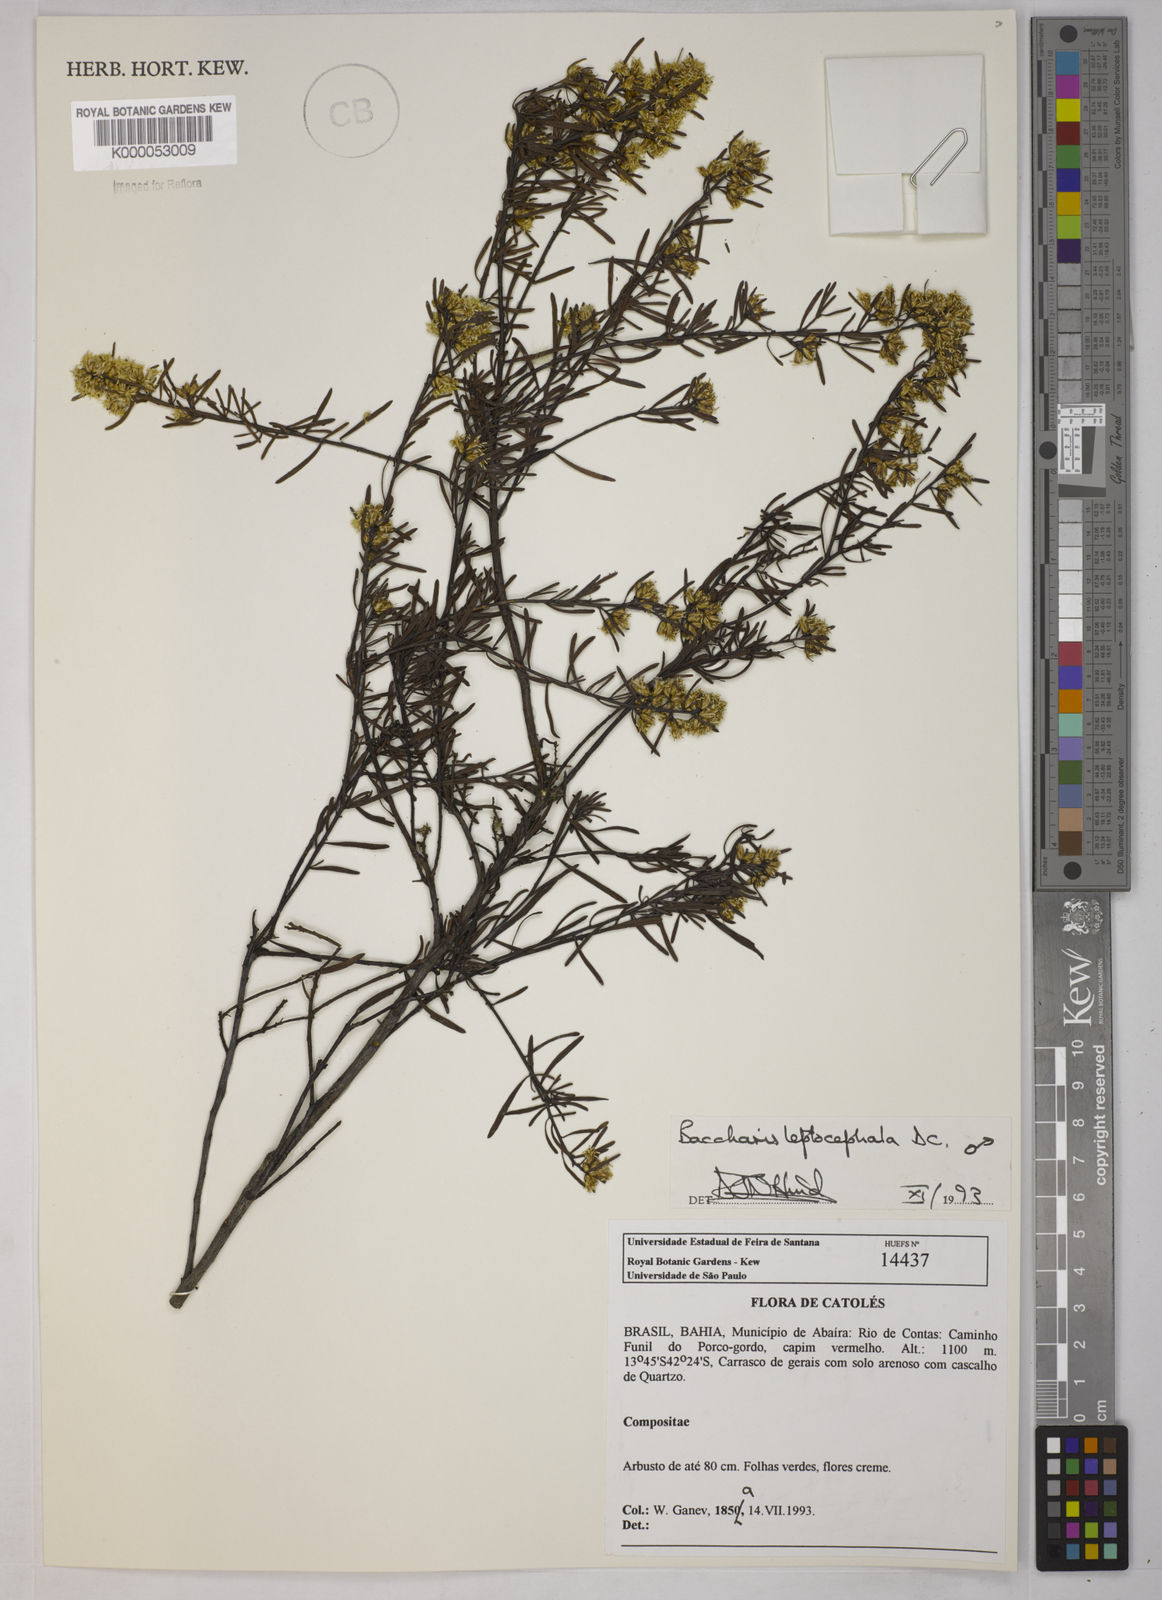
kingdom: Plantae
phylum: Tracheophyta
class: Magnoliopsida
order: Asterales
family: Asteraceae
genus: Baccharis
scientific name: Baccharis leptocephala
